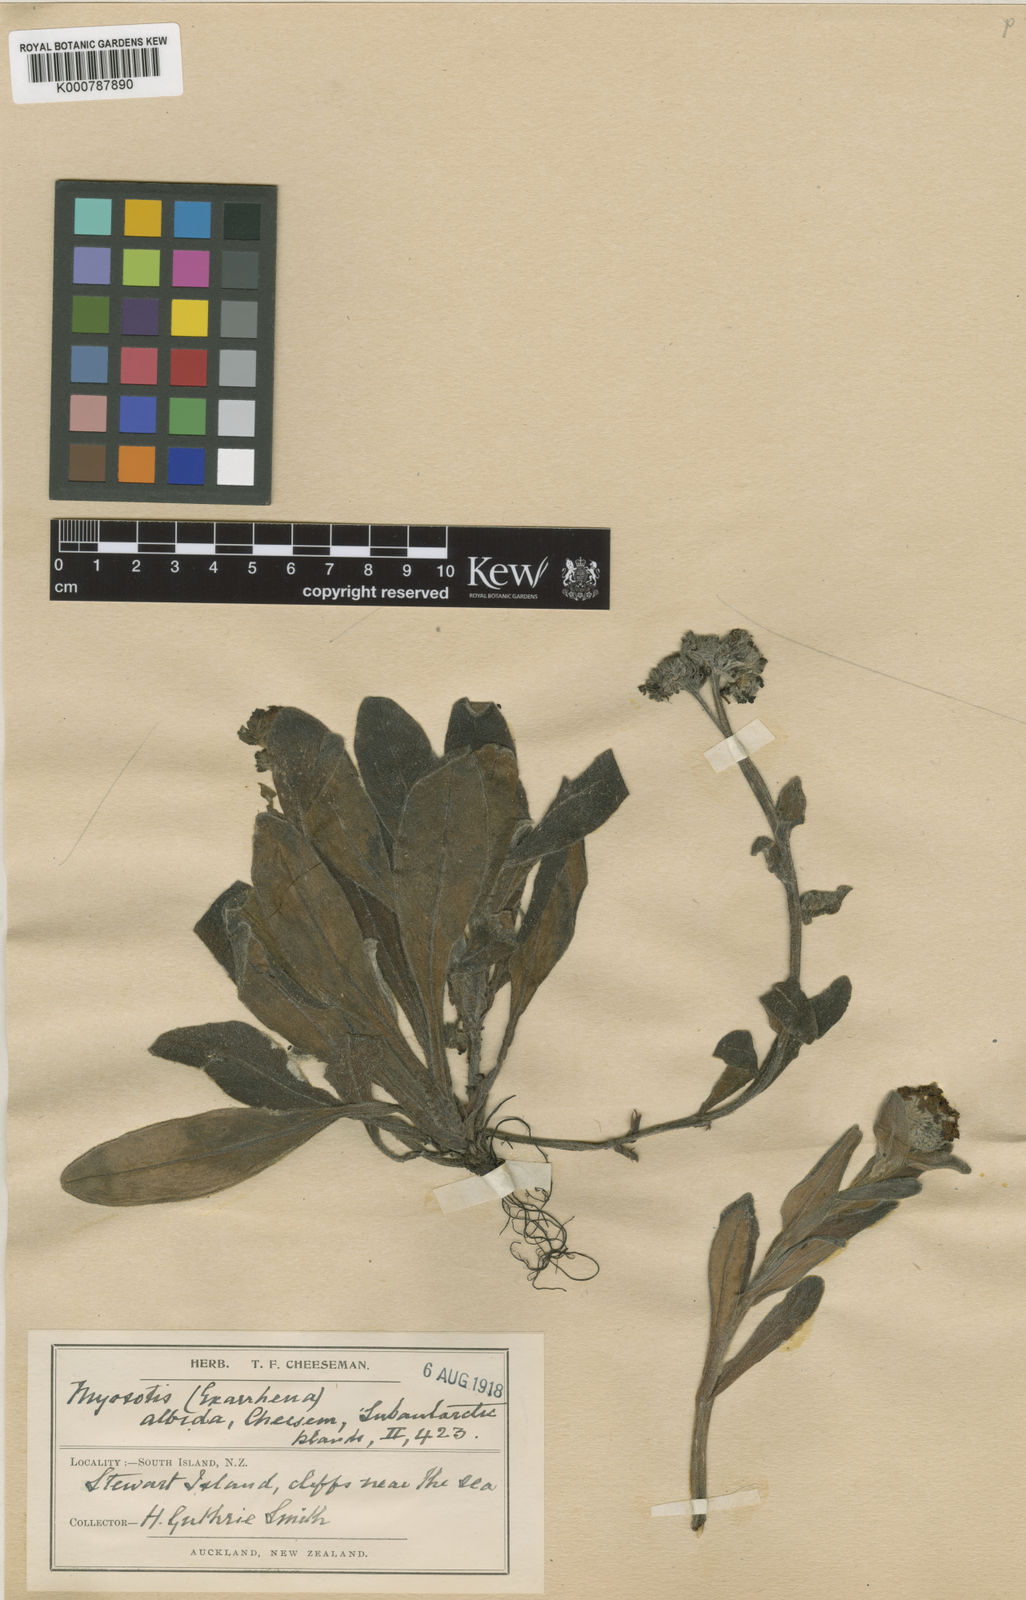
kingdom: Plantae
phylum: Tracheophyta
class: Magnoliopsida
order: Boraginales
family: Boraginaceae
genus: Myosotis
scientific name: Myosotis rakiura
